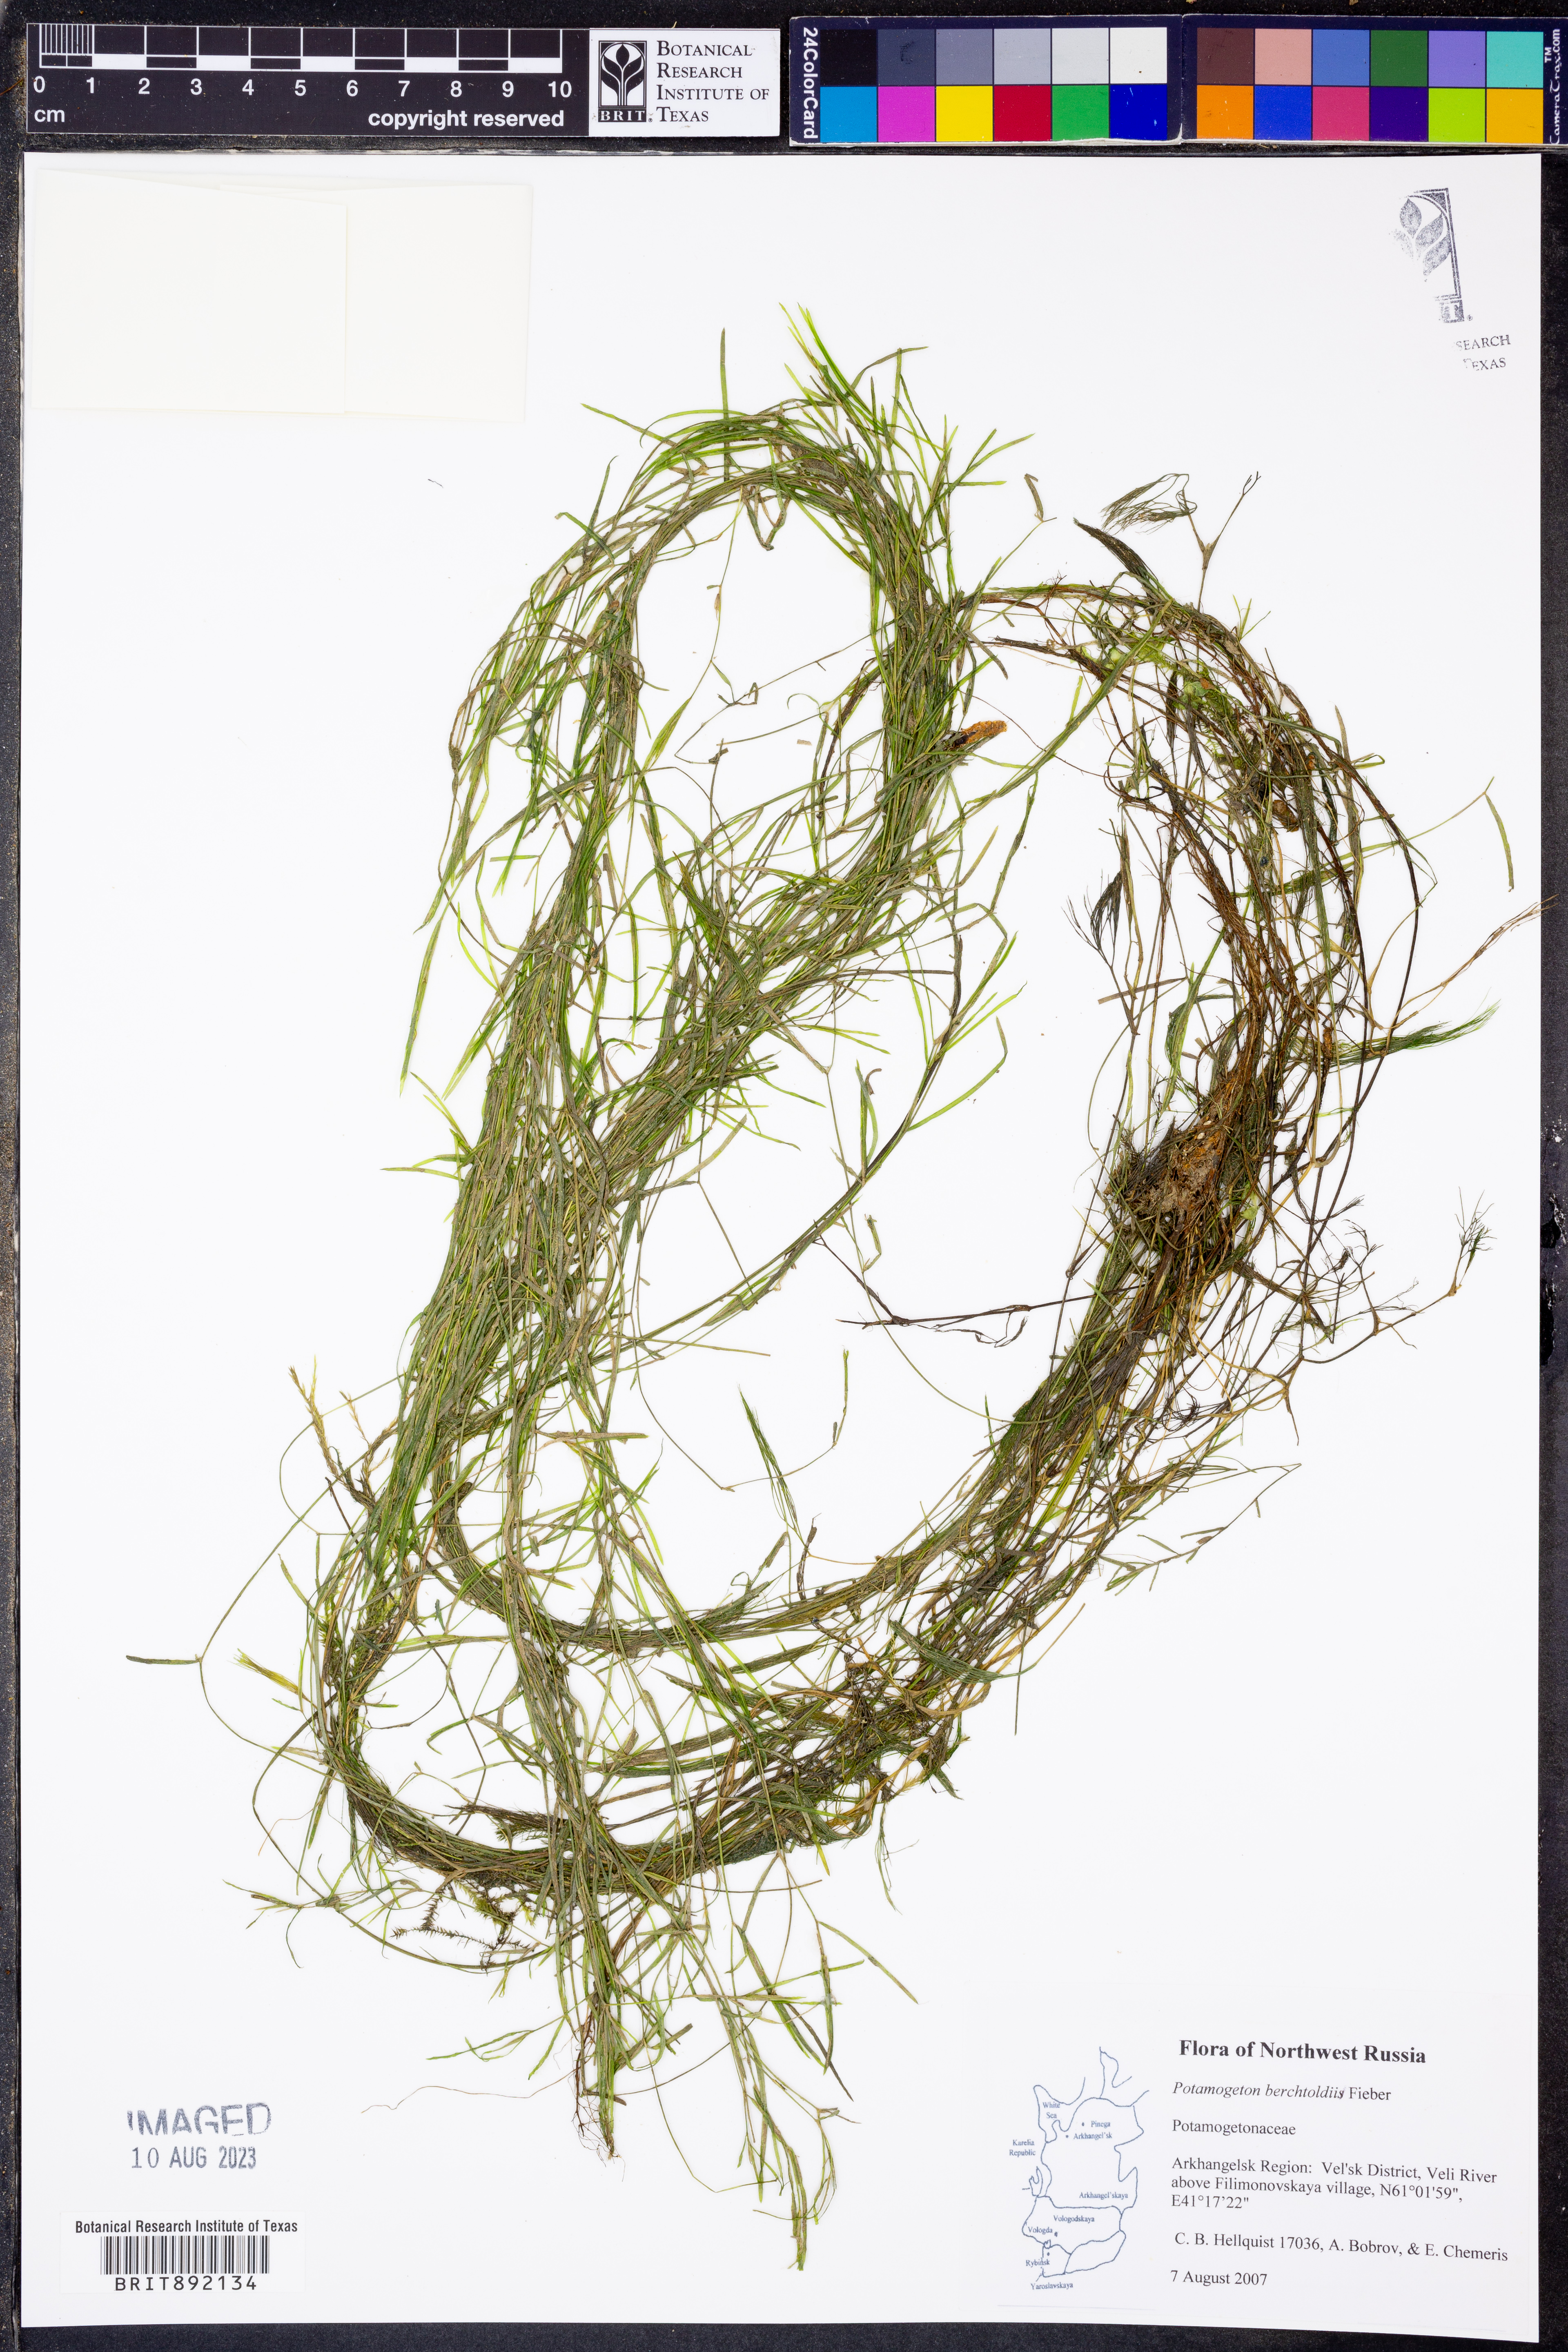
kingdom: Plantae
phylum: Tracheophyta
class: Liliopsida
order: Alismatales
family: Potamogetonaceae
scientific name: Potamogetonaceae
